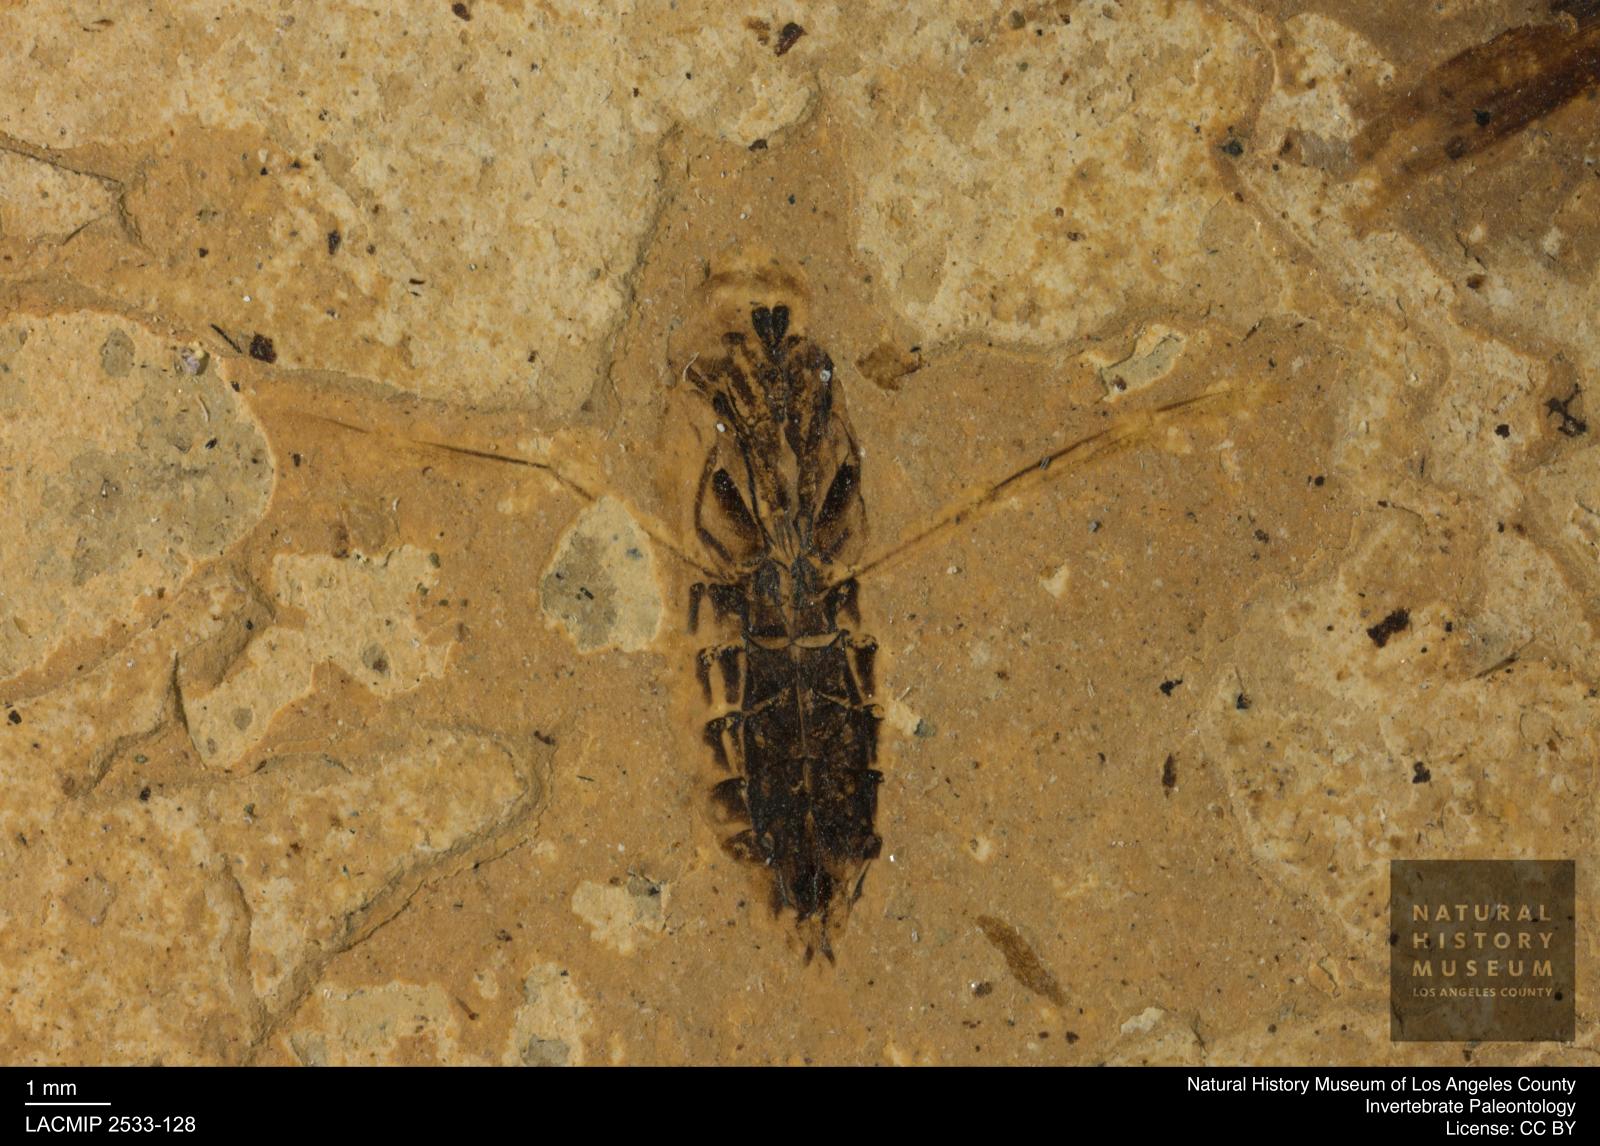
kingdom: Animalia
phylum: Arthropoda
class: Insecta
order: Hemiptera
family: Notonectidae
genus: Anisops
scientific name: Anisops Notonecta heydeni
